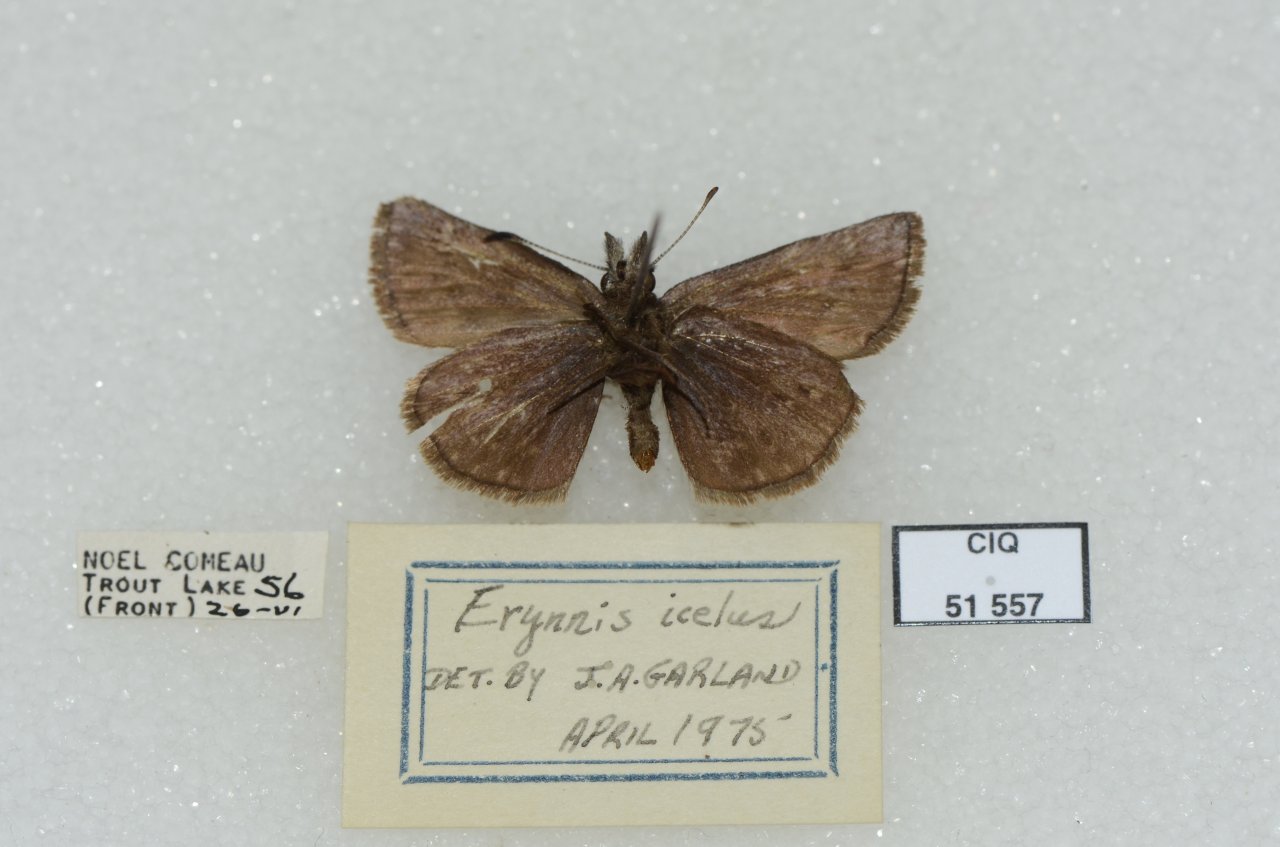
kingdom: Animalia
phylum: Arthropoda
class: Insecta
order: Lepidoptera
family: Hesperiidae
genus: Erynnis
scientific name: Erynnis icelus
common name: Dreamy Duskywing
